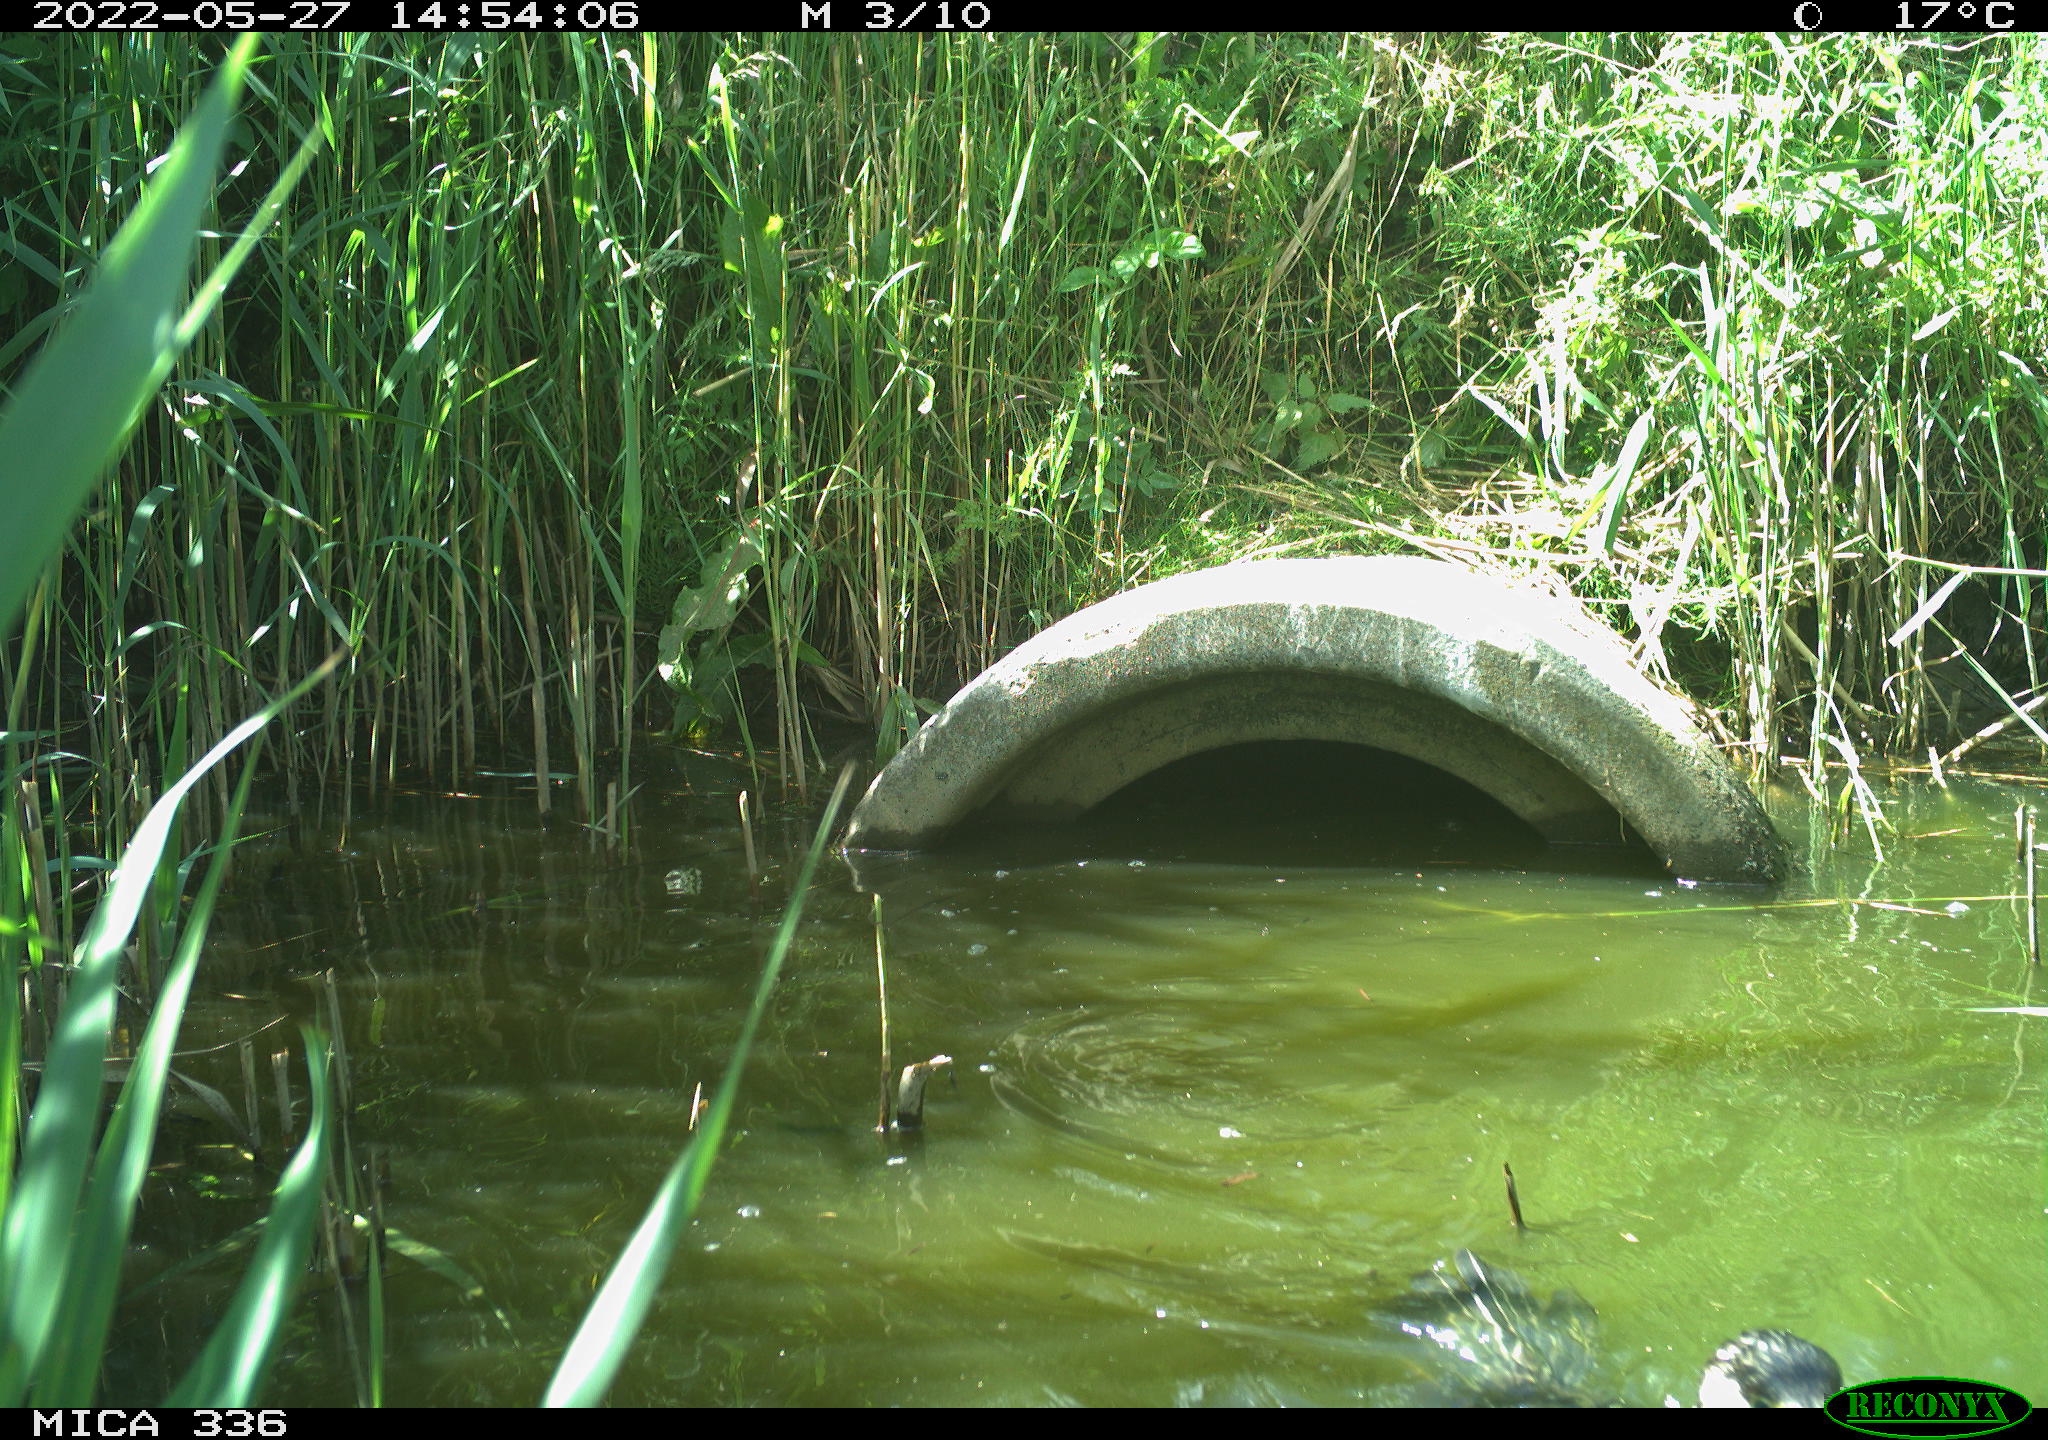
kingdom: Animalia
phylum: Chordata
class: Aves
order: Suliformes
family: Phalacrocoracidae
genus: Phalacrocorax
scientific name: Phalacrocorax carbo
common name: Great cormorant
